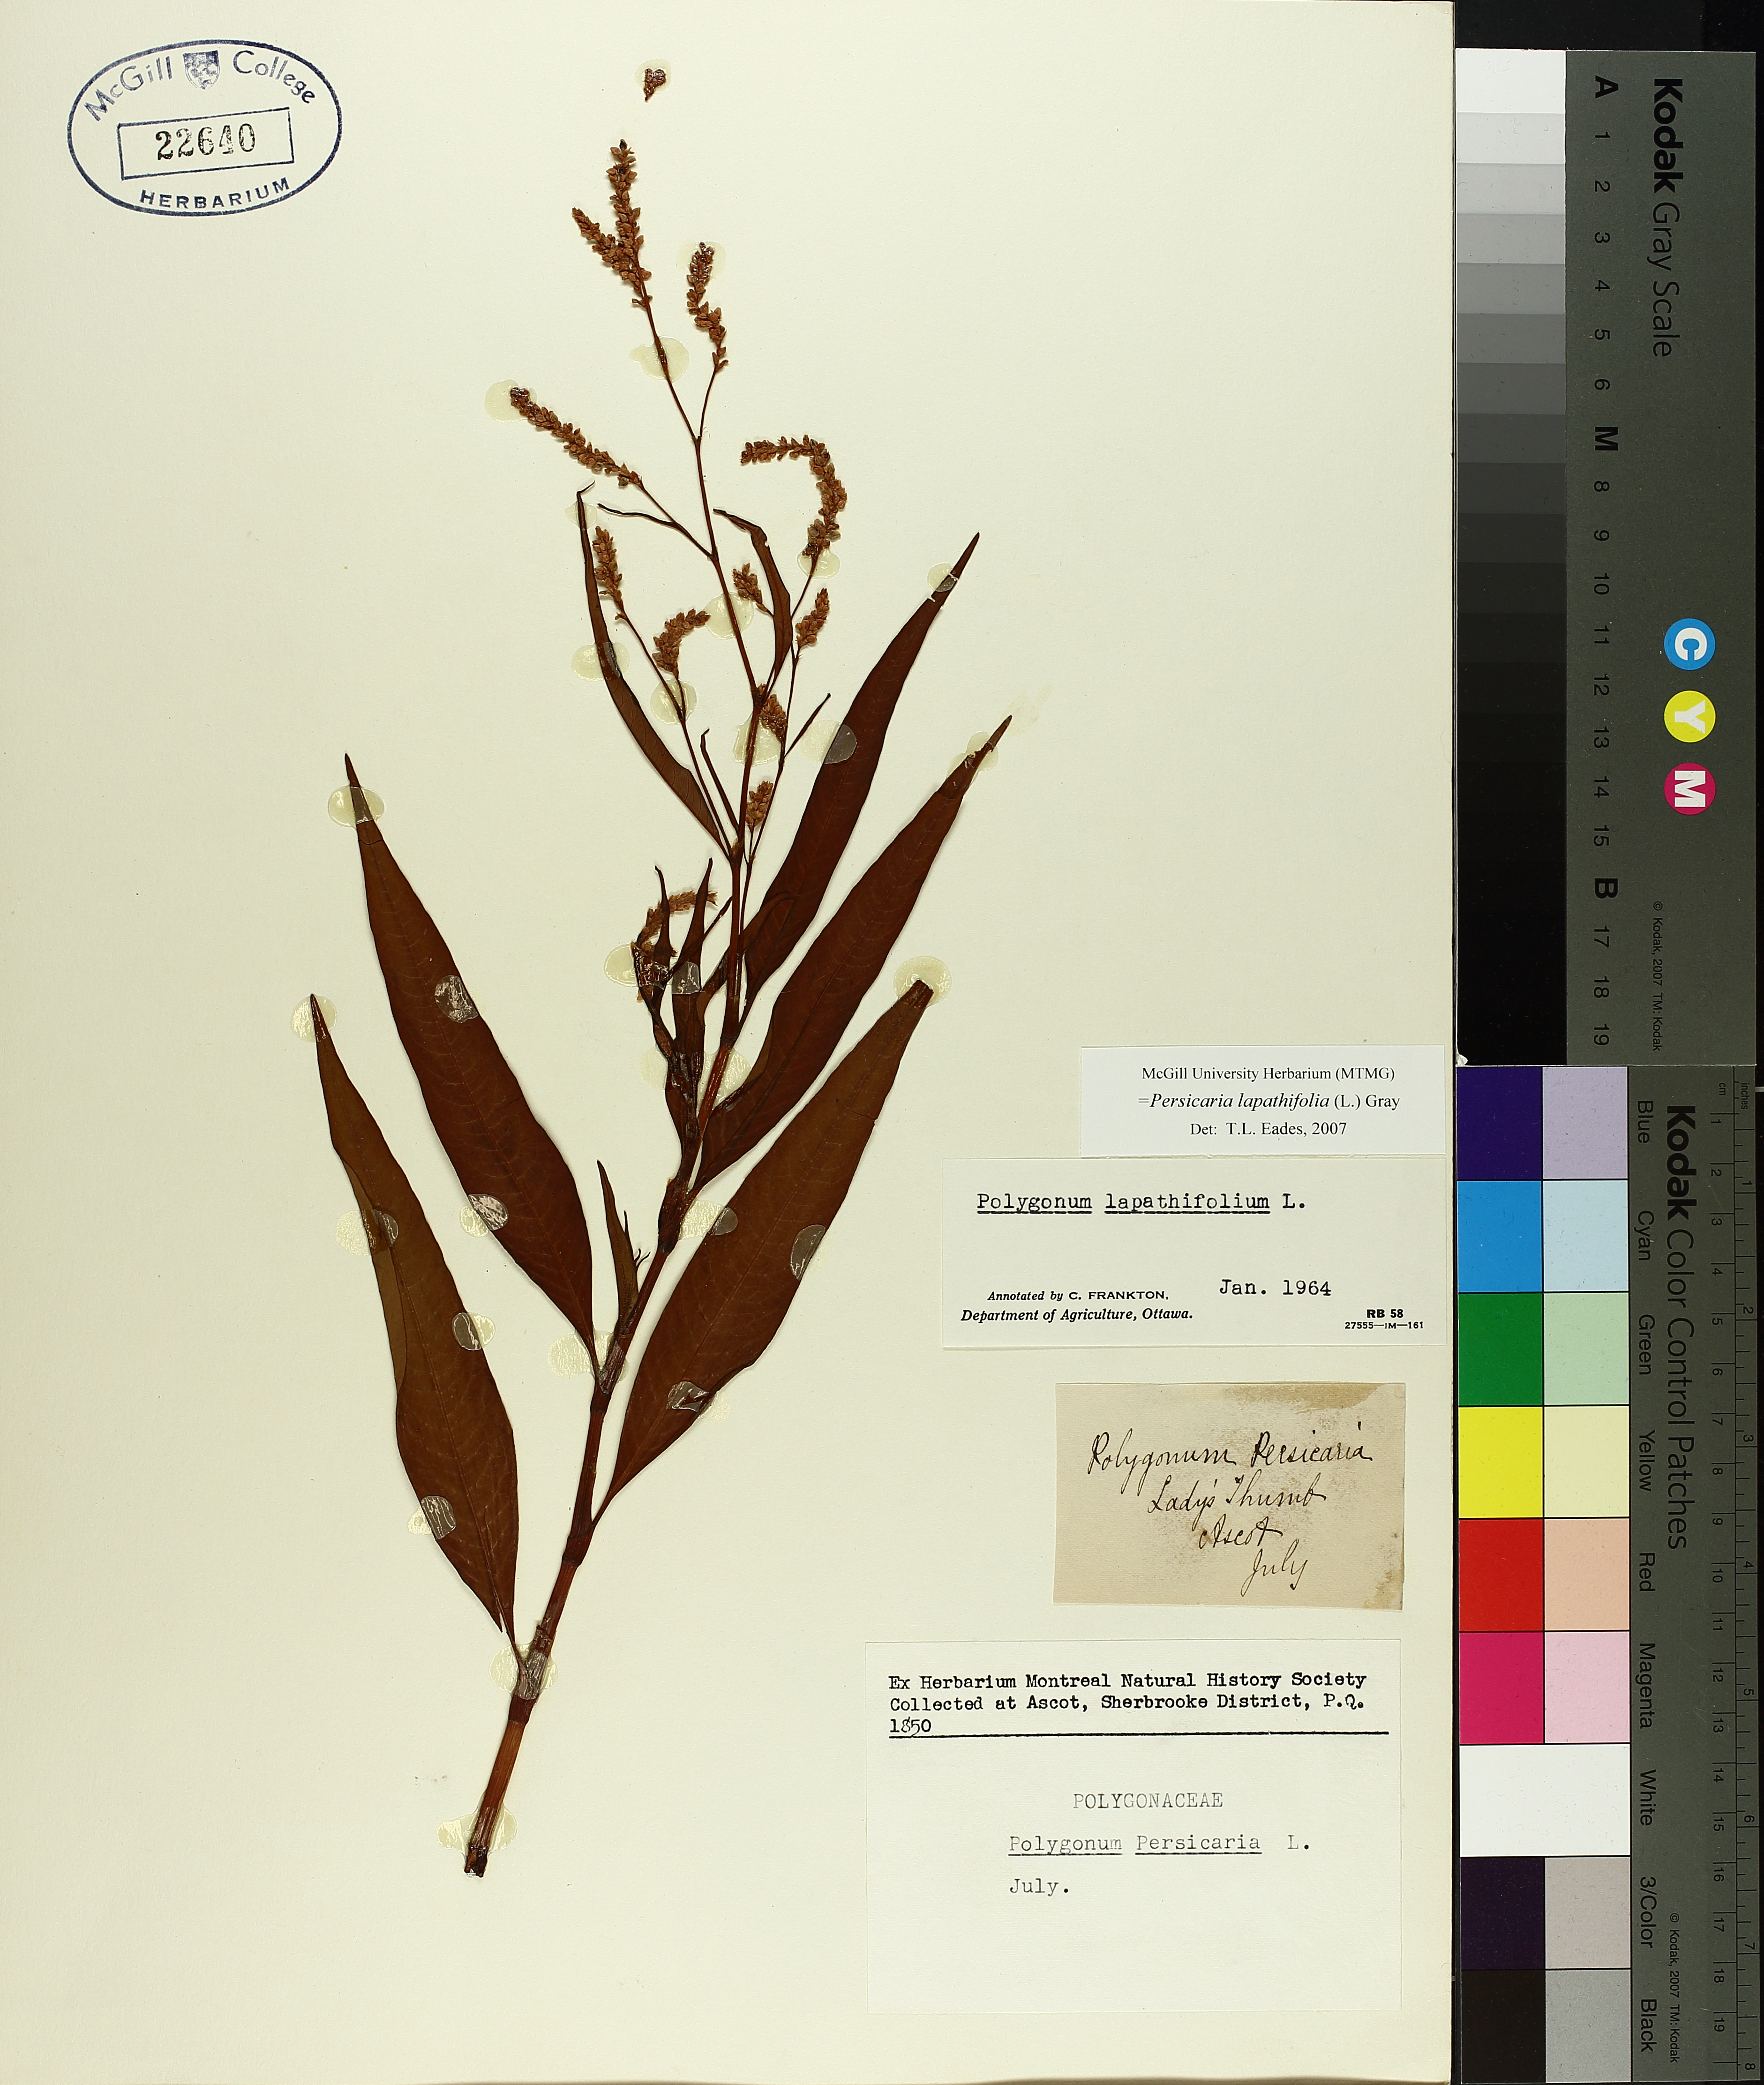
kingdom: Plantae
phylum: Tracheophyta
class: Magnoliopsida
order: Caryophyllales
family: Polygonaceae
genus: Persicaria
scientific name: Persicaria maculosa
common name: Redshank
